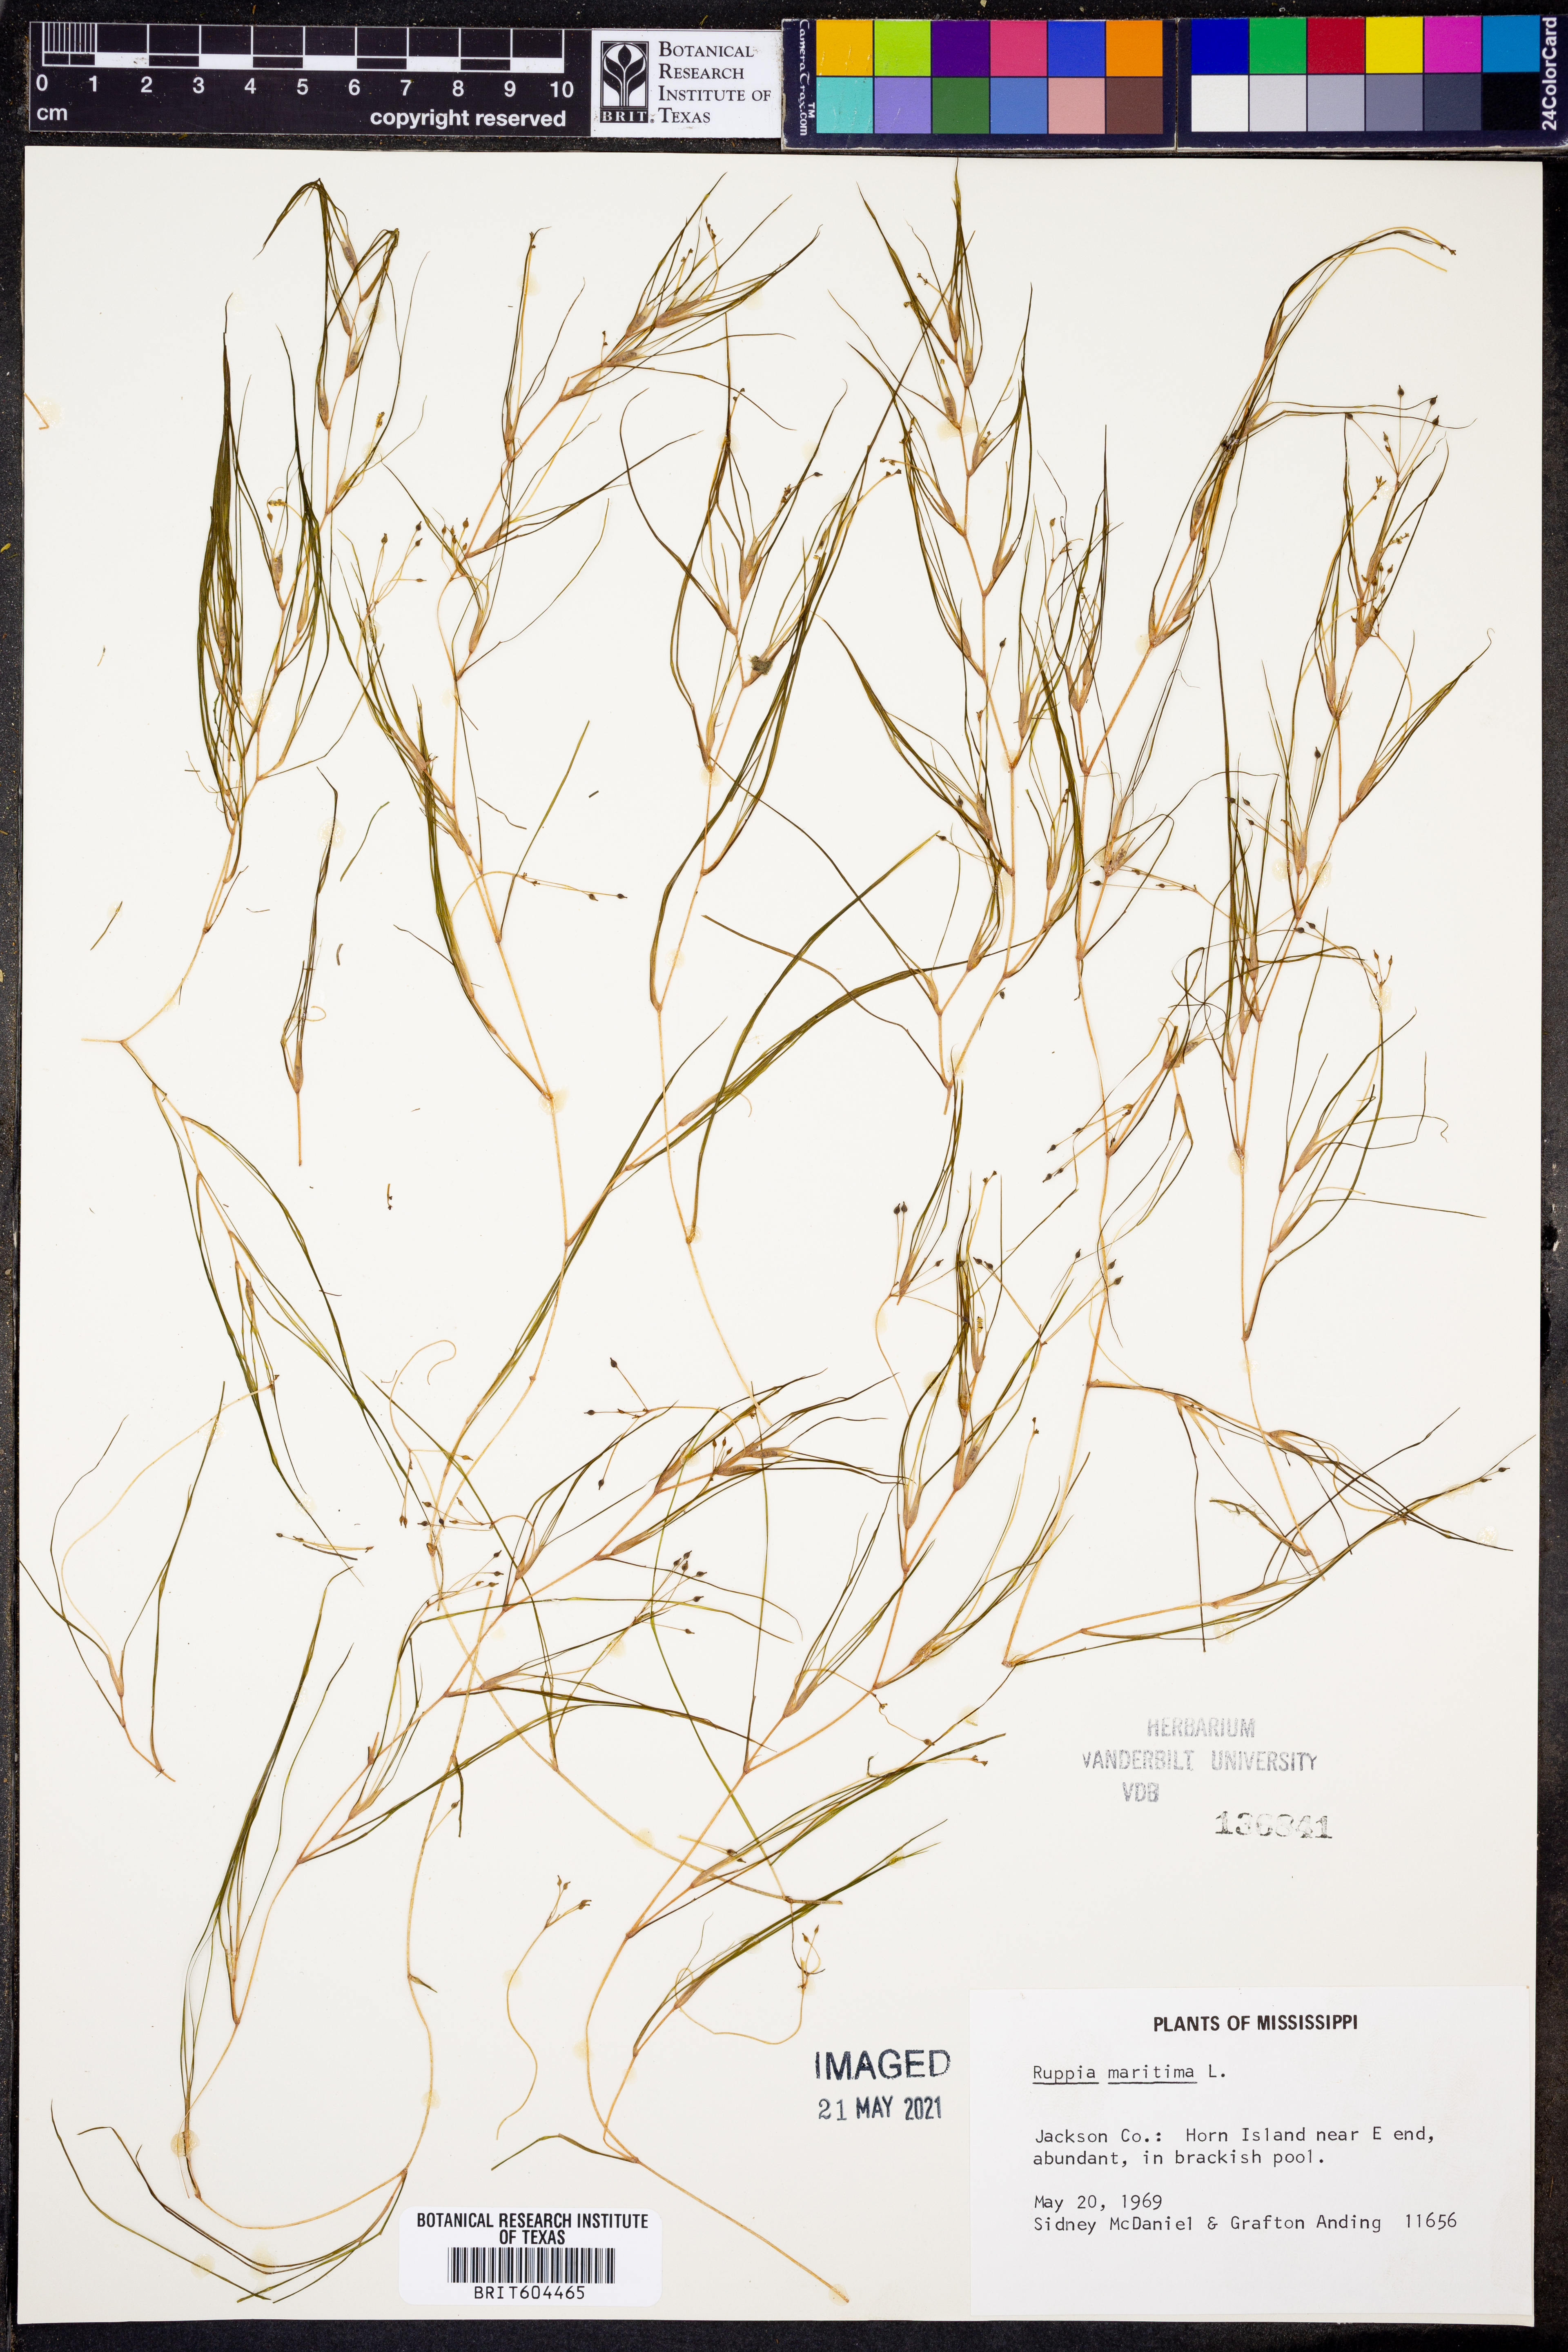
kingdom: Plantae
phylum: Tracheophyta
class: Liliopsida
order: Alismatales
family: Ruppiaceae
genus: Ruppia
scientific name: Ruppia maritima
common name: Beaked tasselweed
